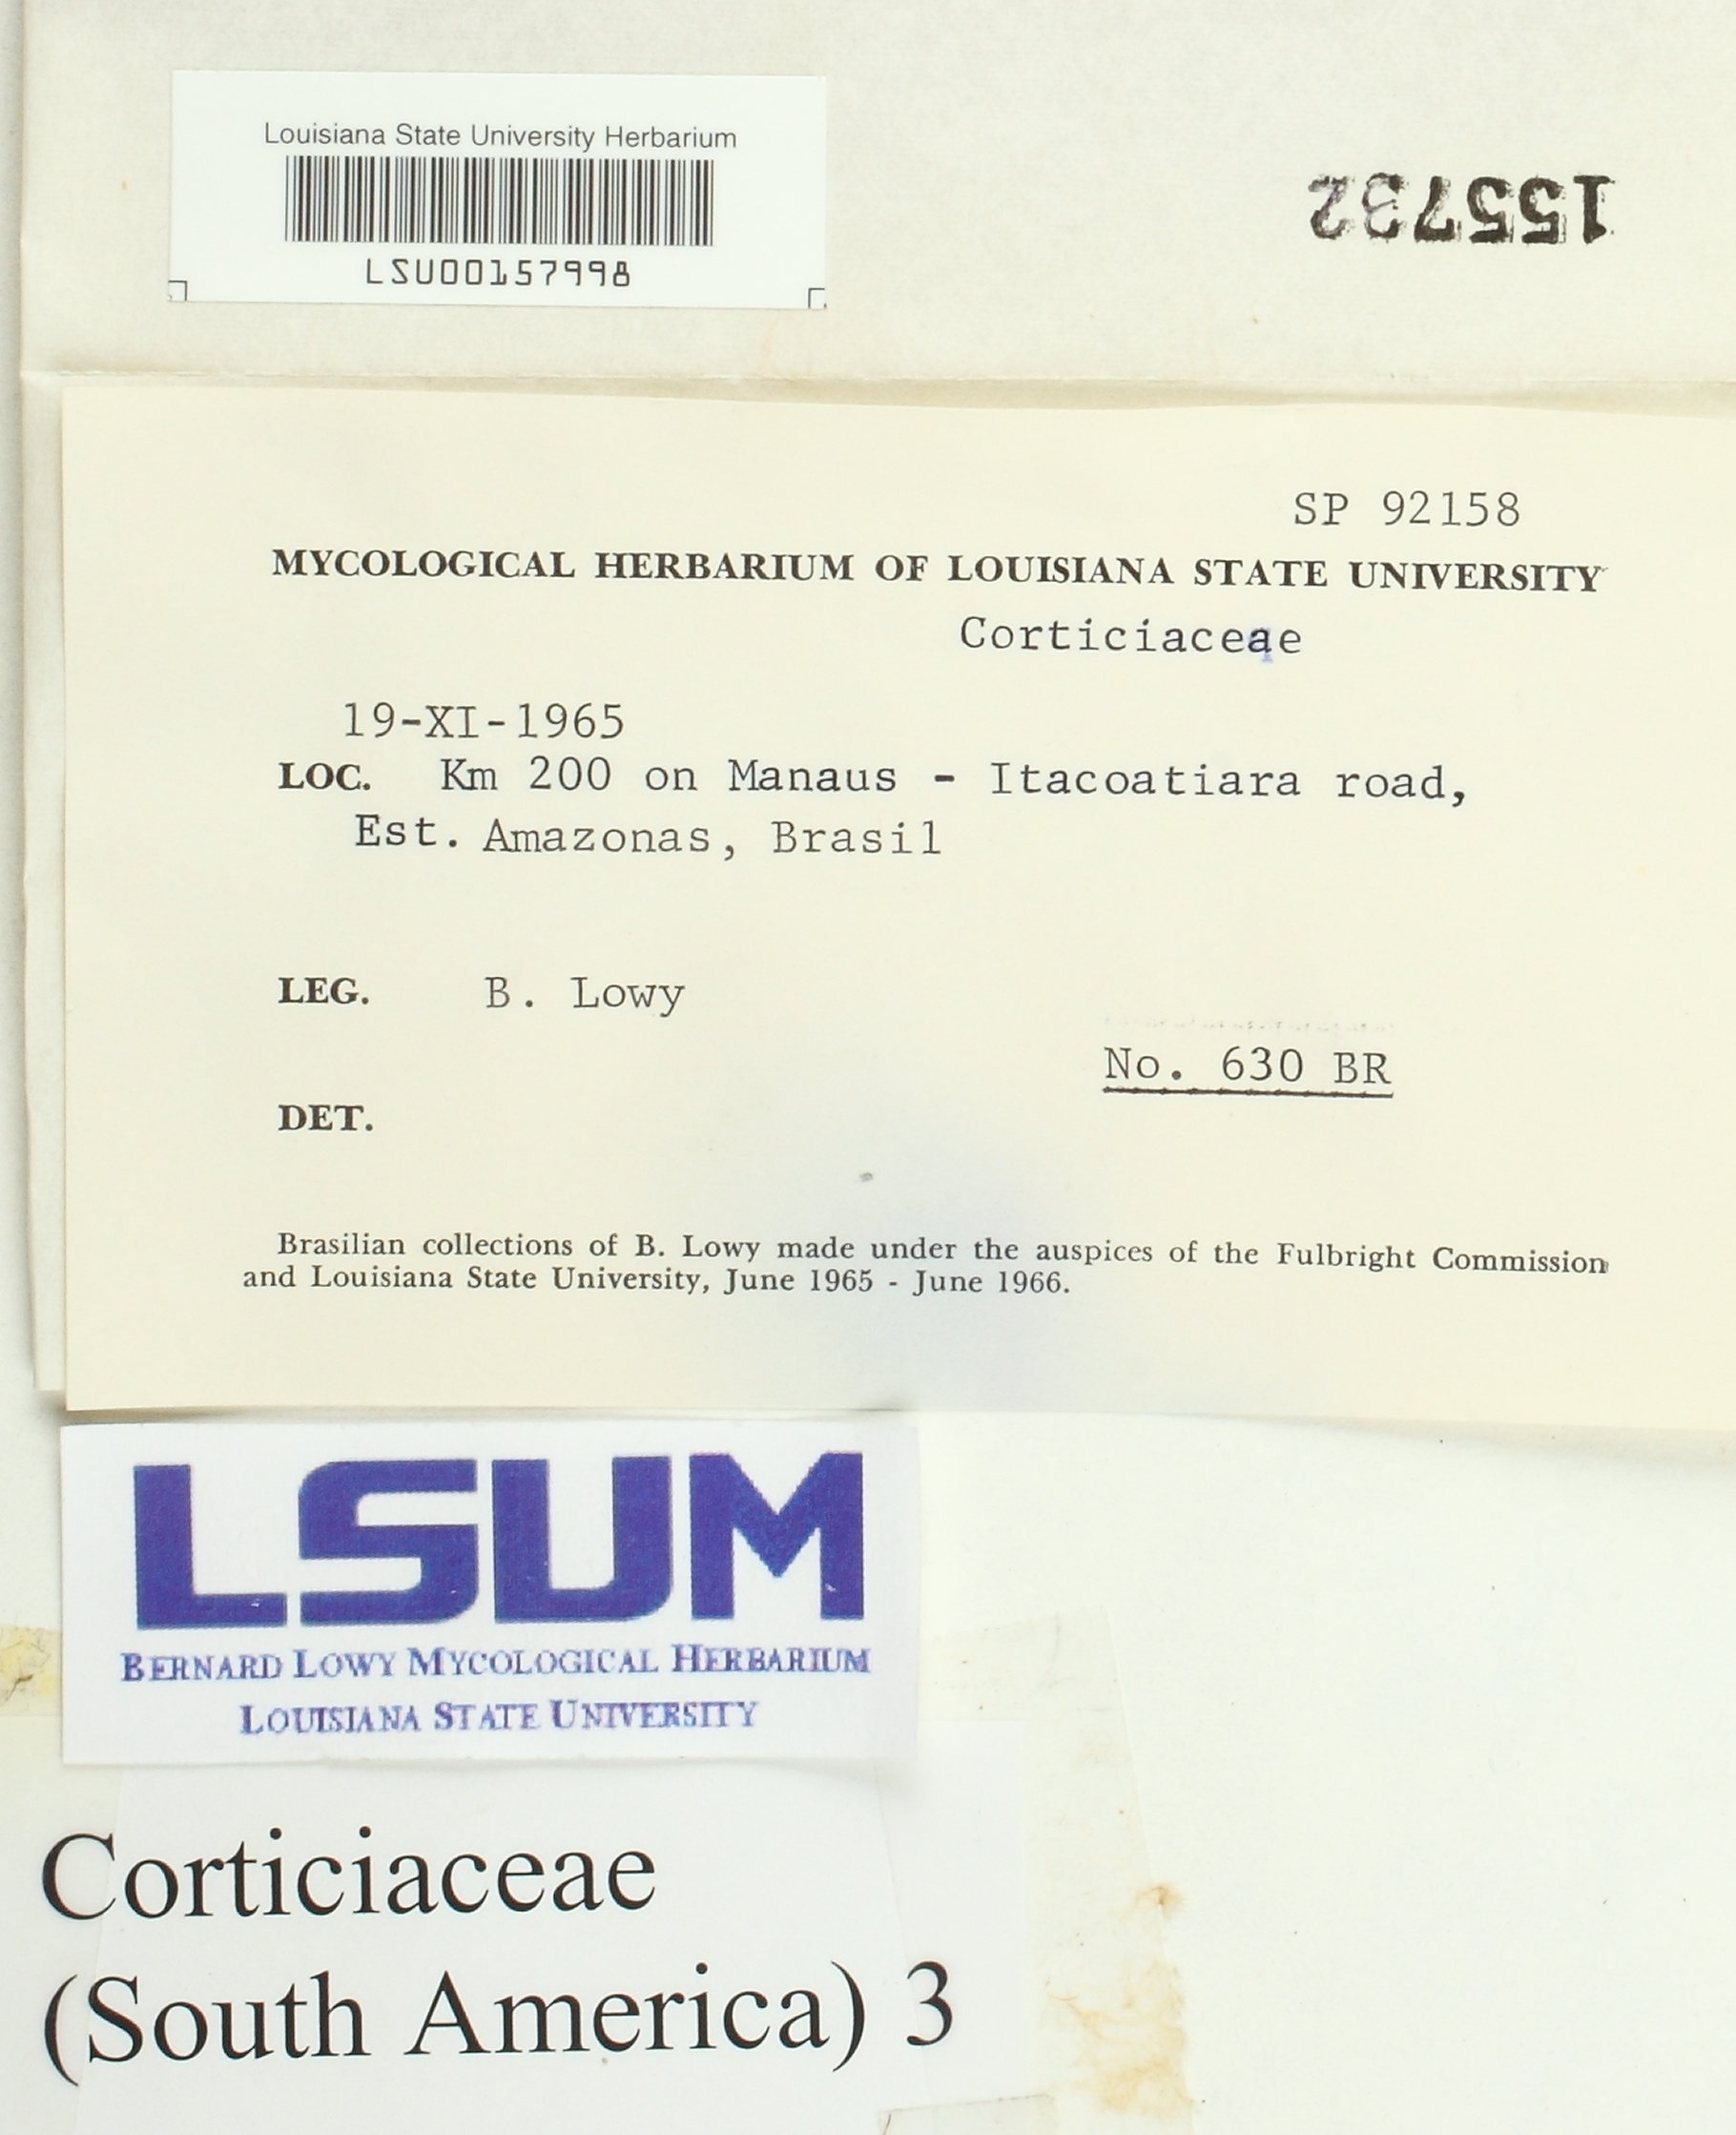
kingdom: Fungi
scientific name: Fungi
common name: Fungi
